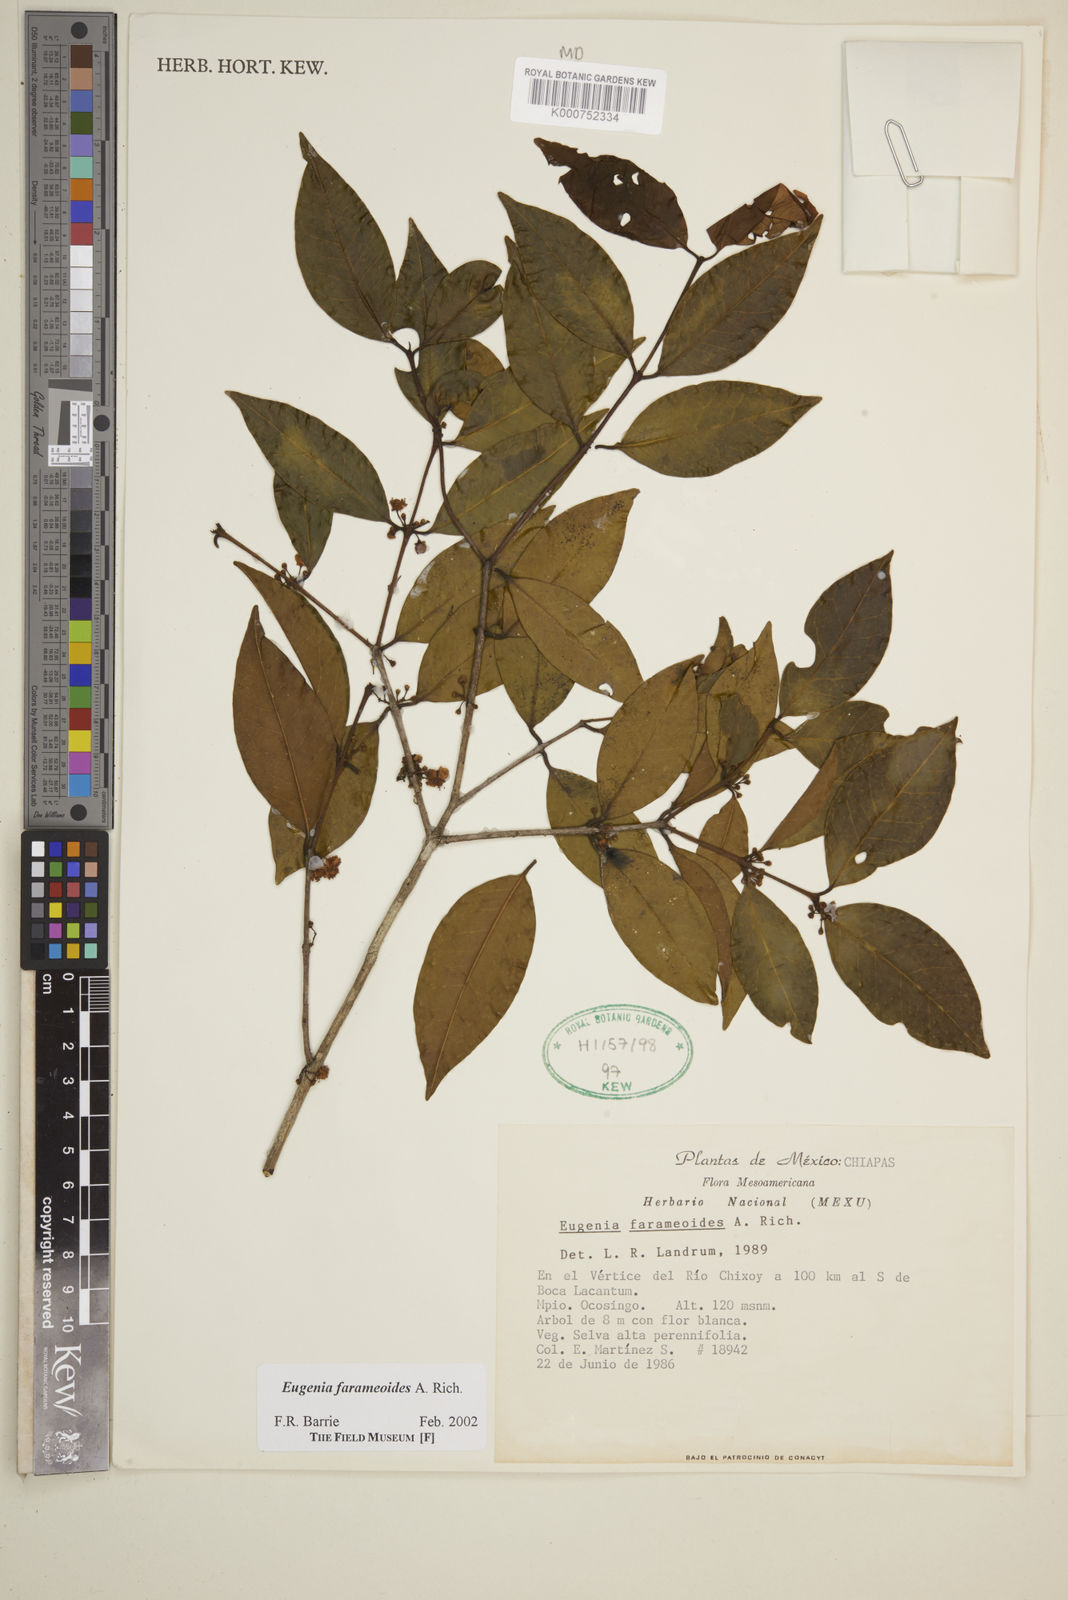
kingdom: Plantae
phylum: Tracheophyta
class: Magnoliopsida
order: Myrtales
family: Myrtaceae
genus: Eugenia
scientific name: Eugenia farameoides
